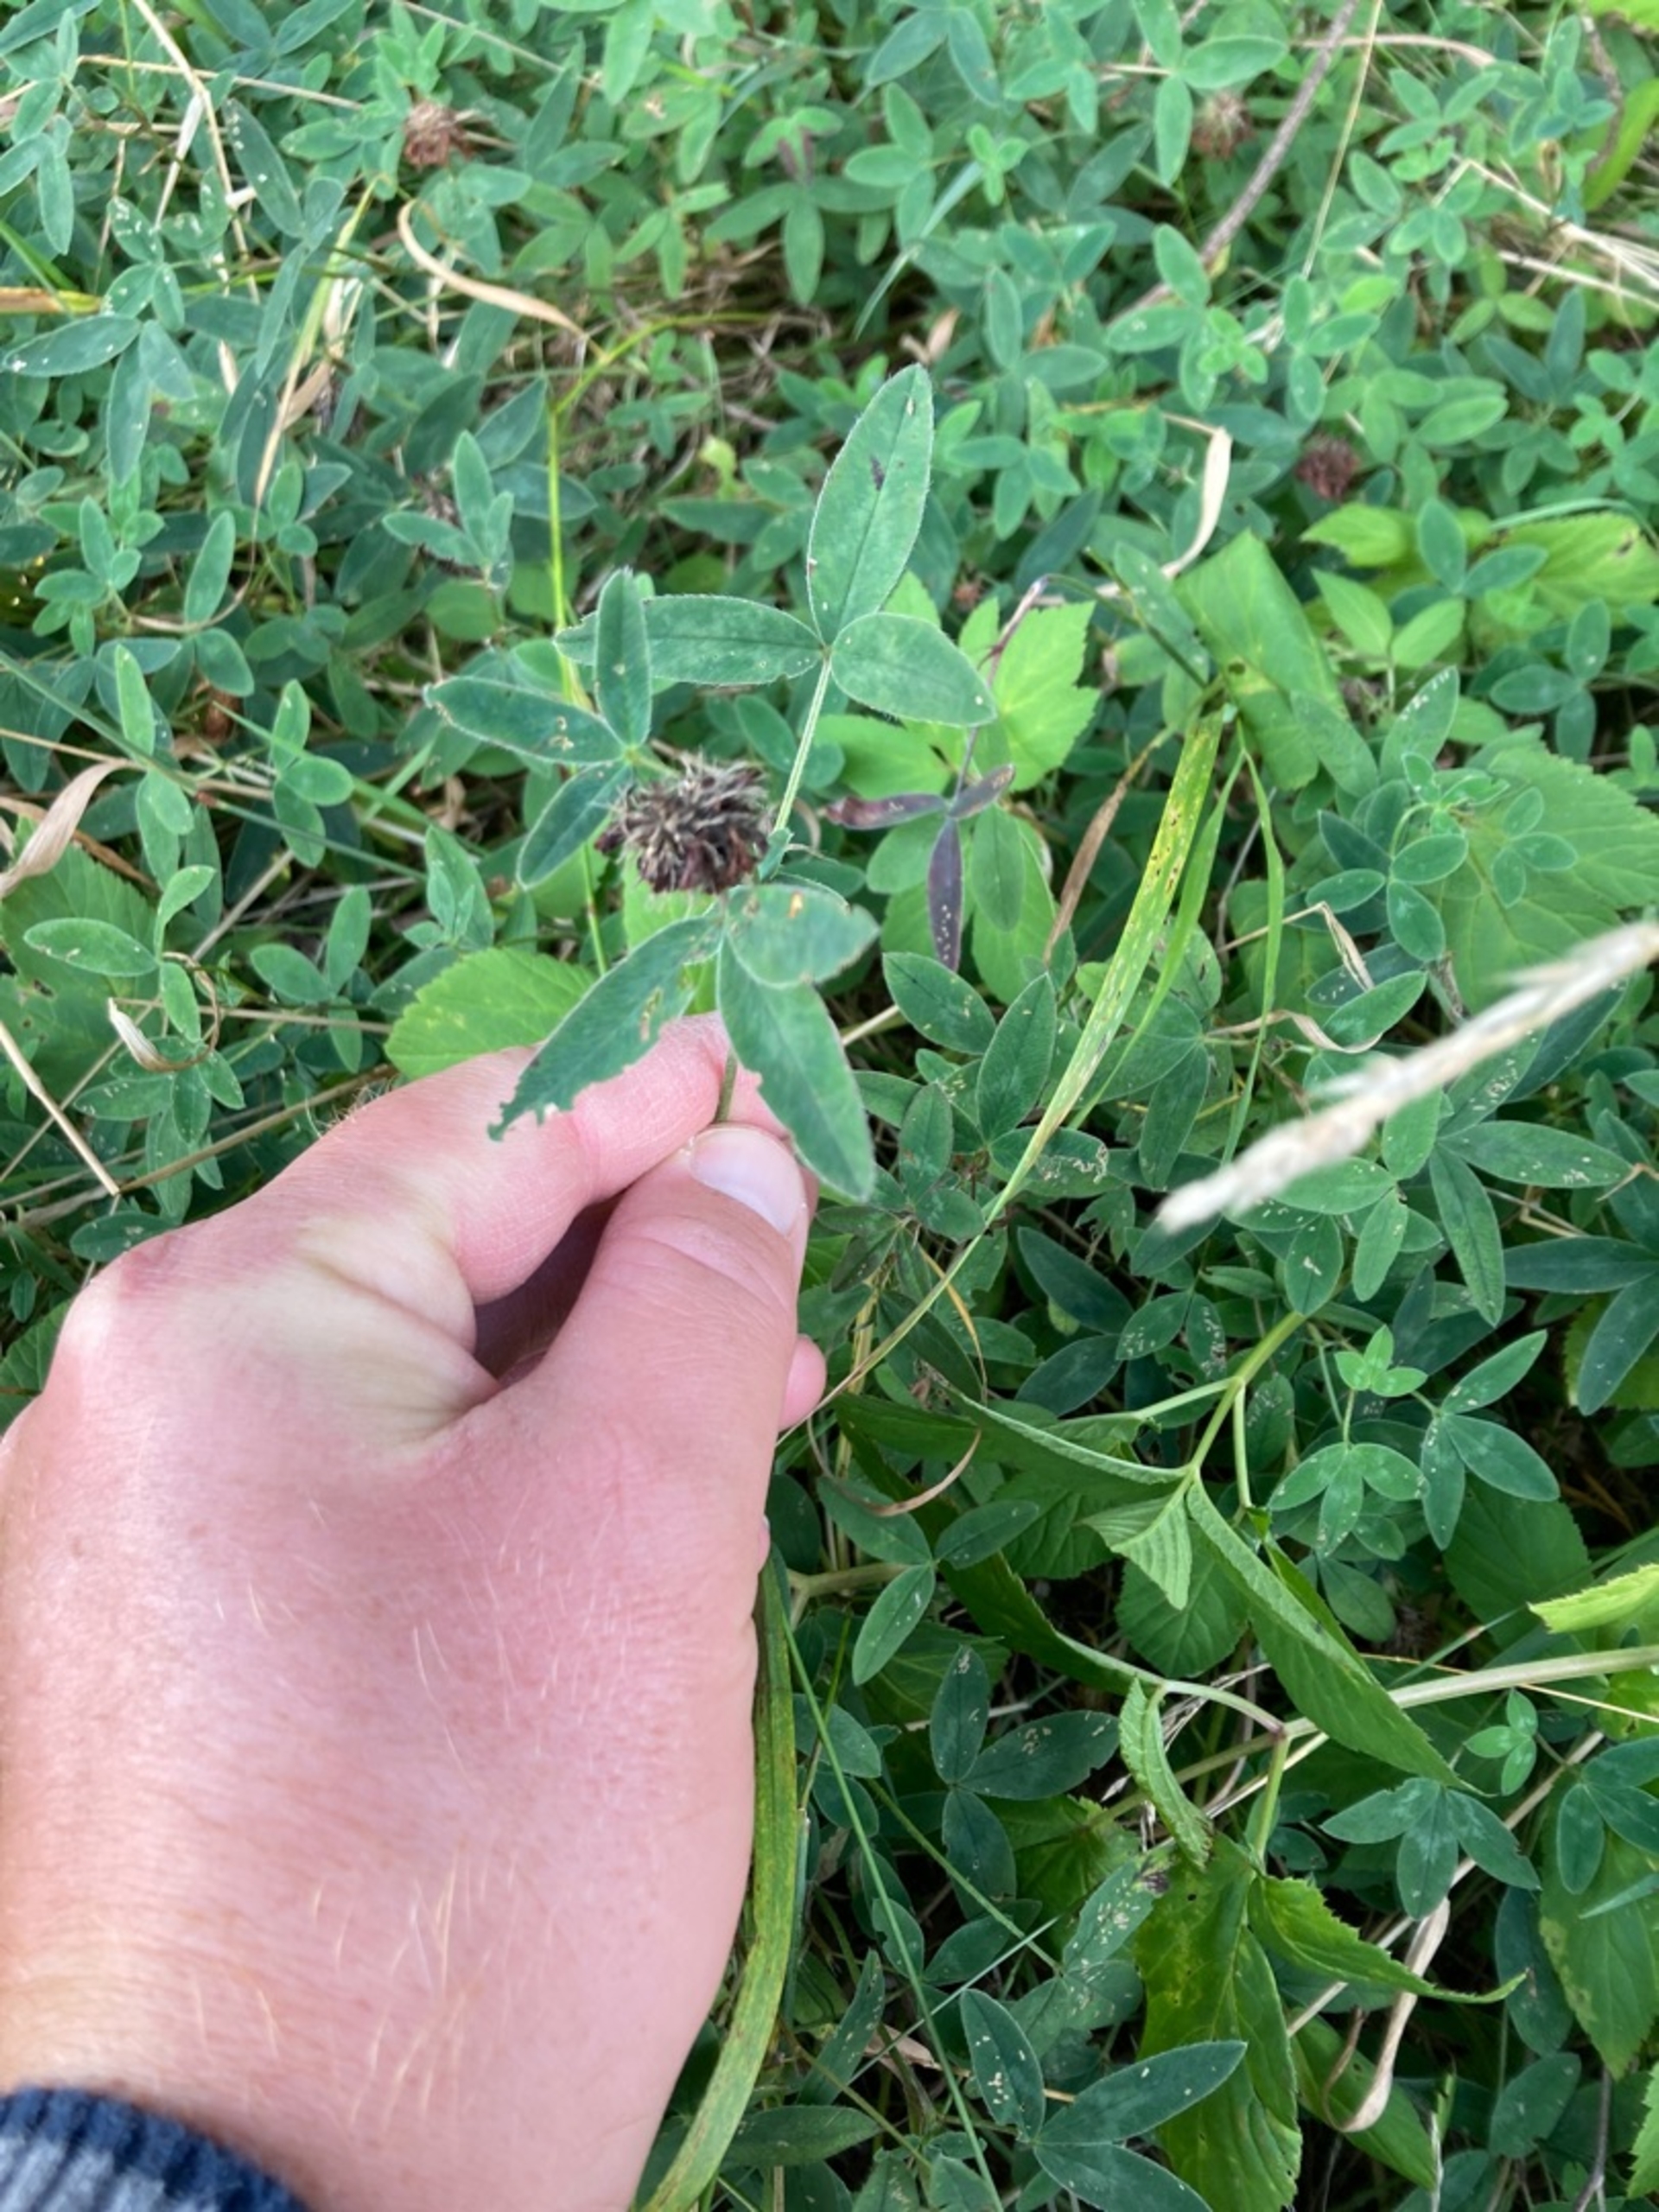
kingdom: Plantae
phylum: Tracheophyta
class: Magnoliopsida
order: Fabales
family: Fabaceae
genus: Trifolium
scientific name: Trifolium medium
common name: Bugtet kløver
